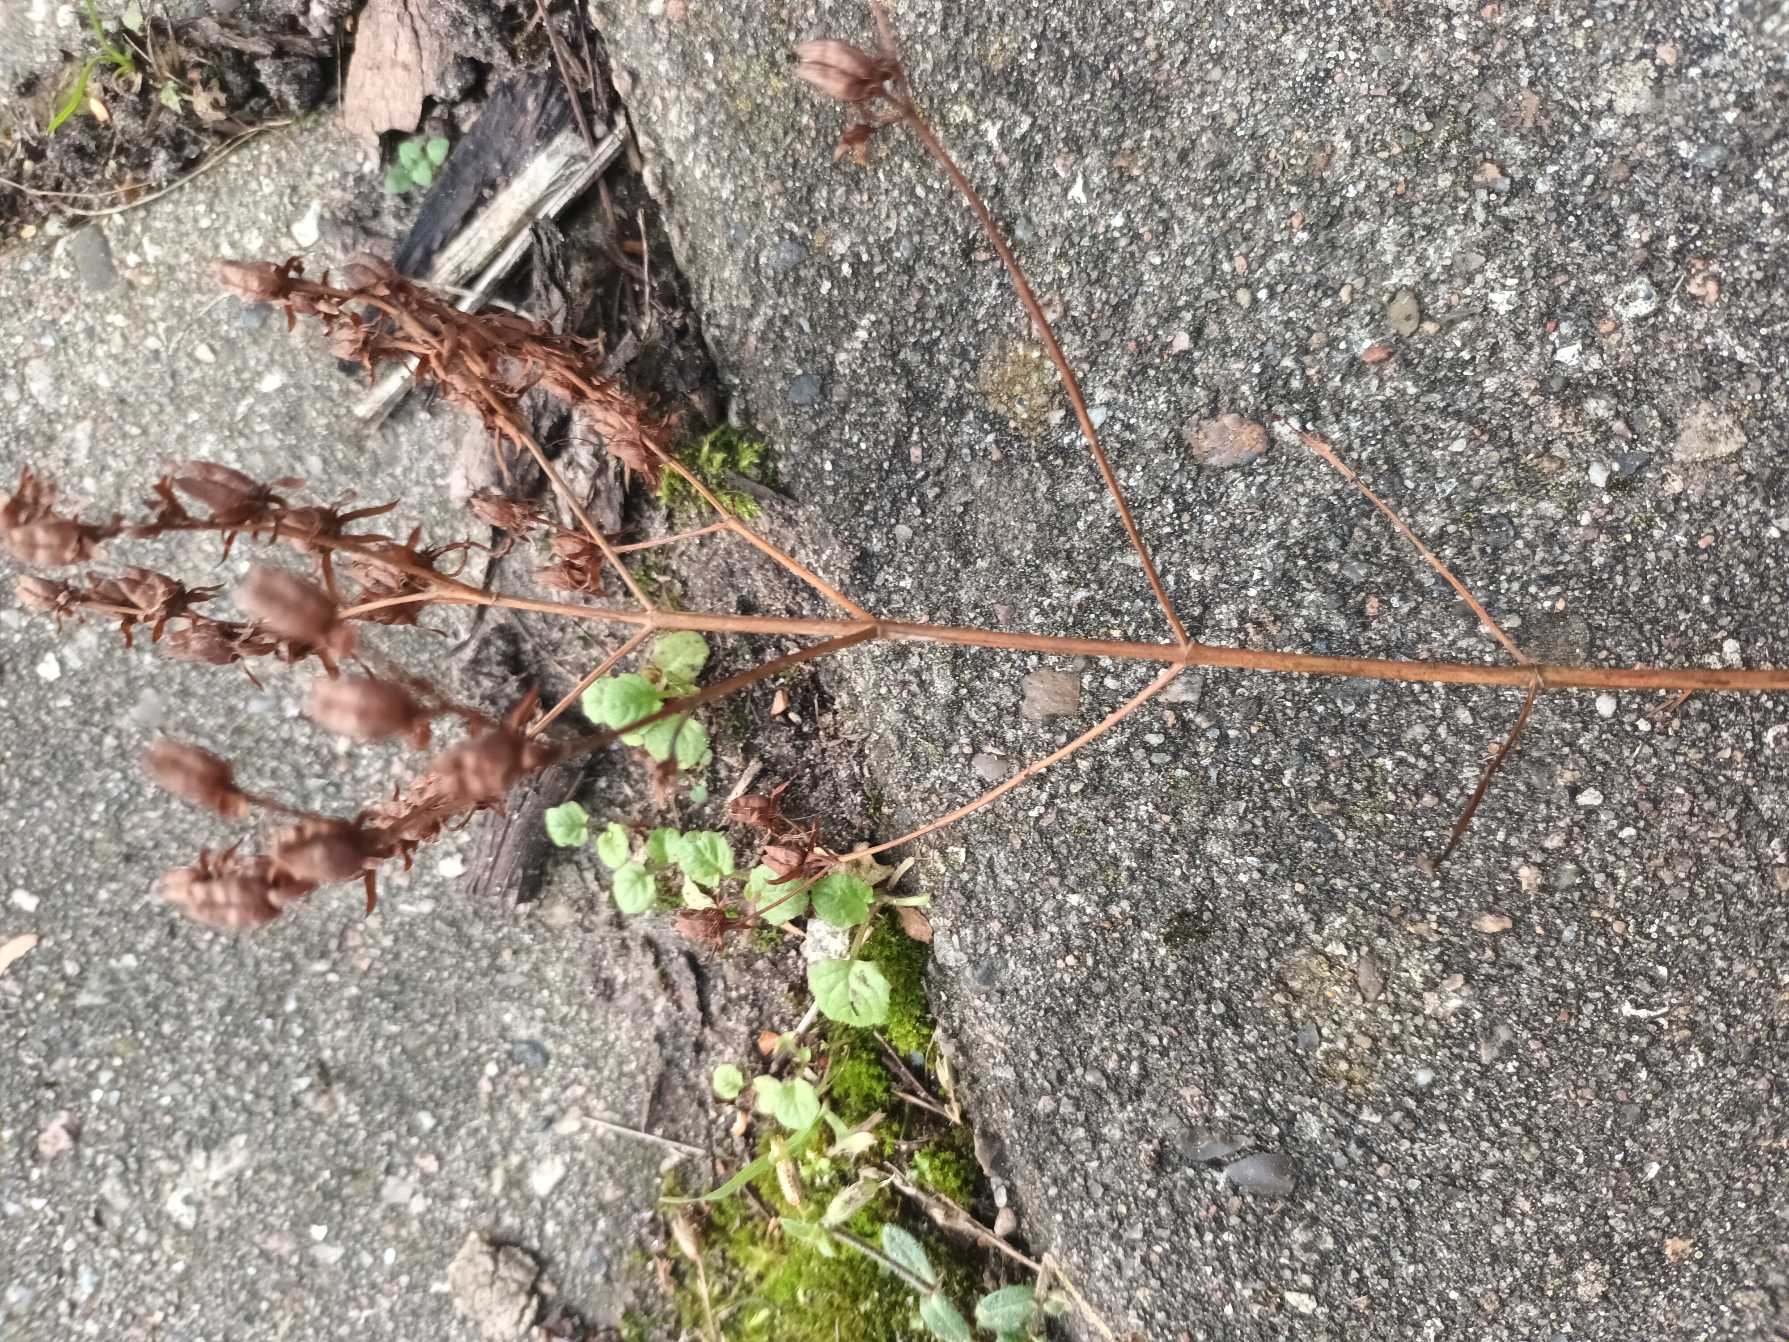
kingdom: Plantae
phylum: Tracheophyta
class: Magnoliopsida
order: Malpighiales
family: Hypericaceae
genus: Hypericum
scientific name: Hypericum perforatum
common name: Prikbladet perikon
